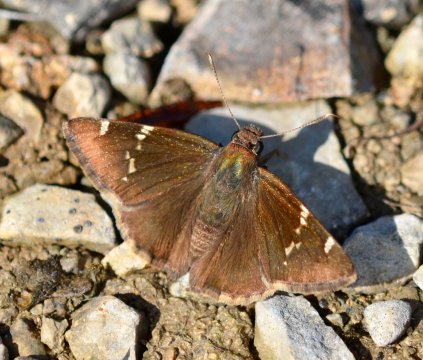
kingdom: Animalia
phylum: Arthropoda
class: Insecta
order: Lepidoptera
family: Hesperiidae
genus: Autochton
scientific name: Autochton
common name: Southern Cloudywing
